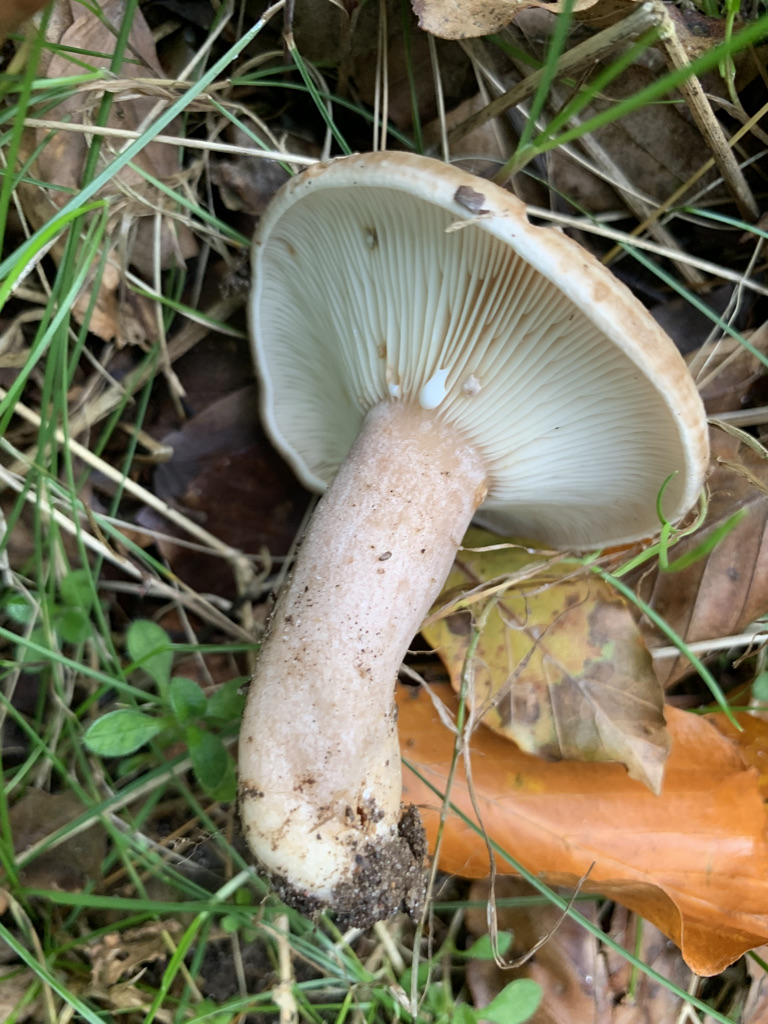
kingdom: Fungi
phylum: Basidiomycota
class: Agaricomycetes
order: Russulales
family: Russulaceae
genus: Lactarius
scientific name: Lactarius blennius
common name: dråbeplettet mælkehat
